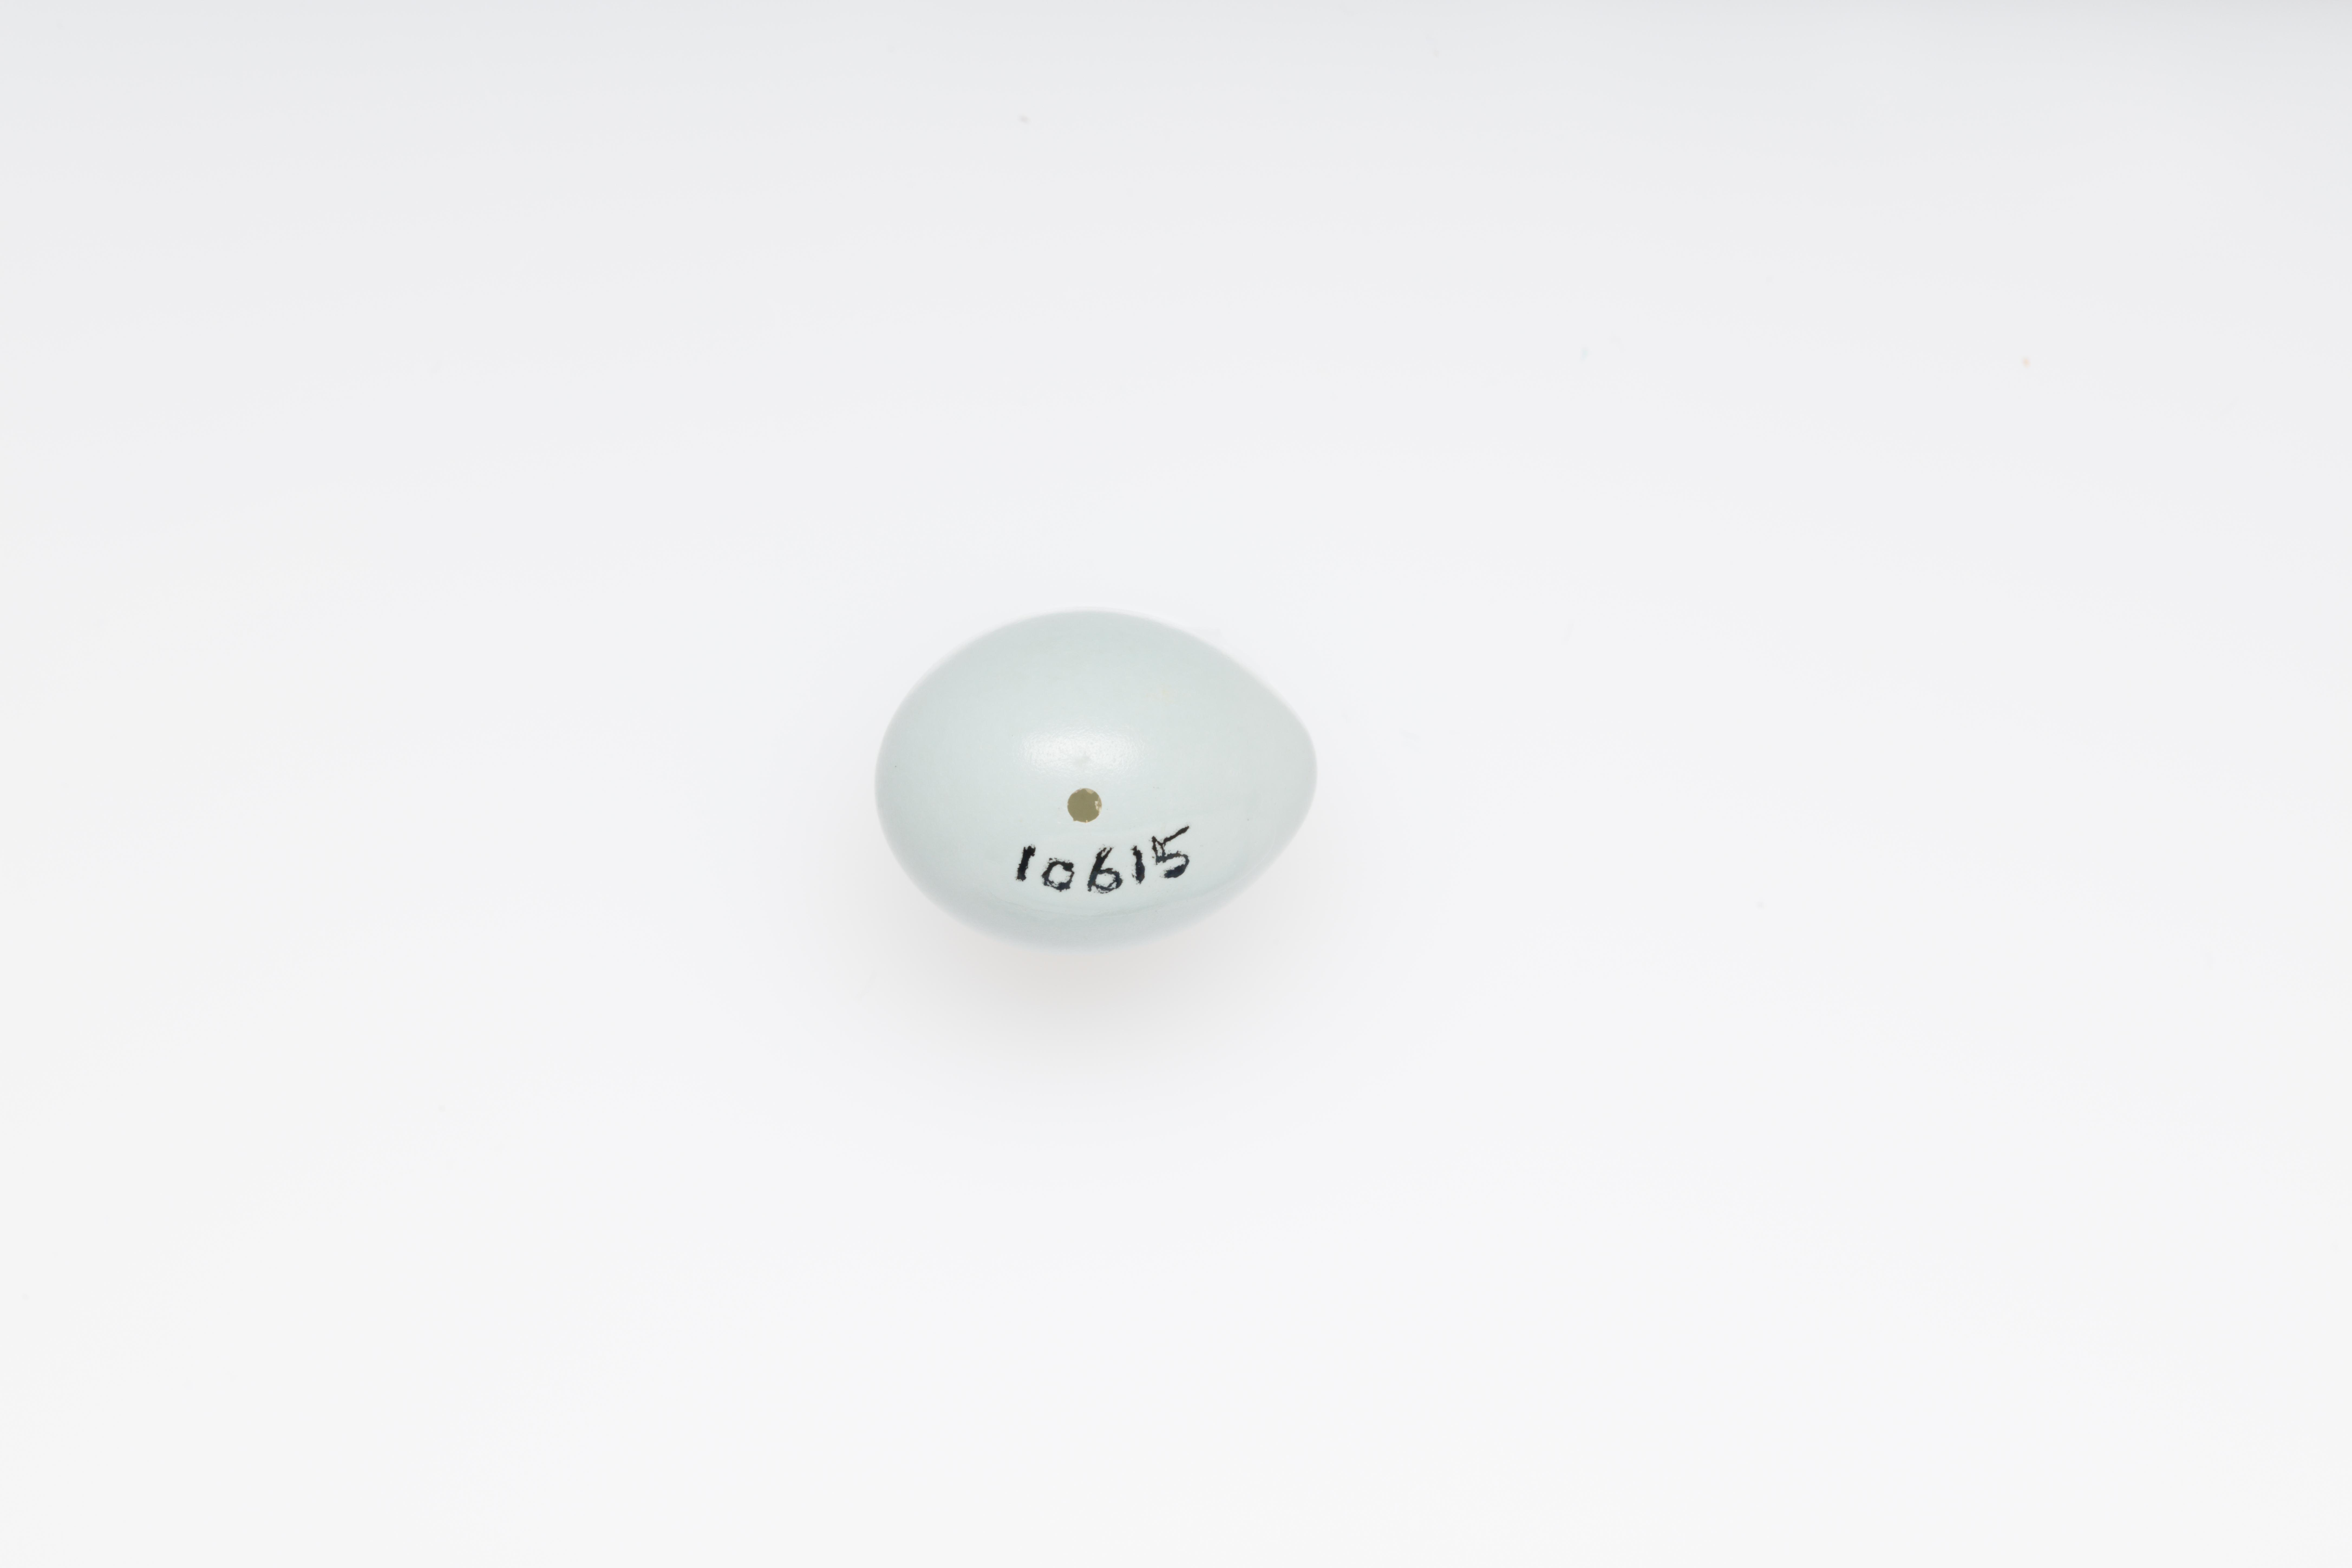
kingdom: Animalia
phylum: Chordata
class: Aves
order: Passeriformes
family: Prunellidae
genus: Prunella
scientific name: Prunella modularis
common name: Dunnock
